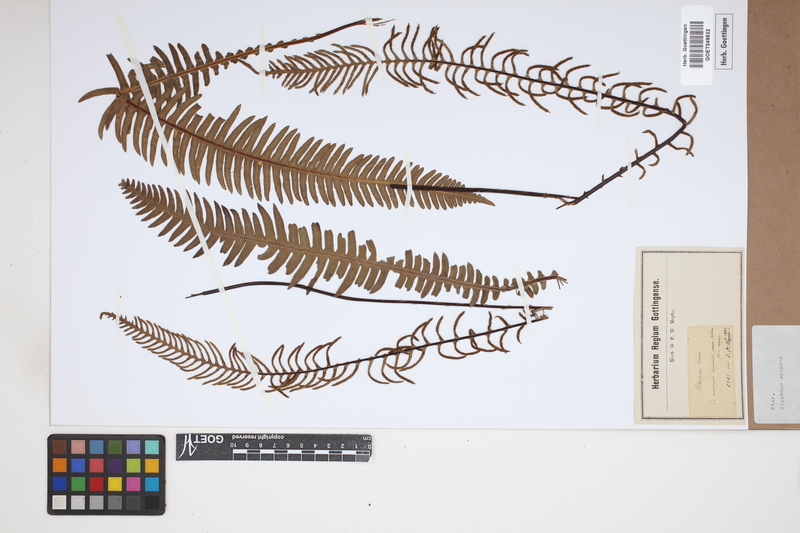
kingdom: Plantae
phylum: Tracheophyta
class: Polypodiopsida
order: Polypodiales
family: Blechnaceae
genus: Struthiopteris
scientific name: Struthiopteris spicant
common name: Deer fern
